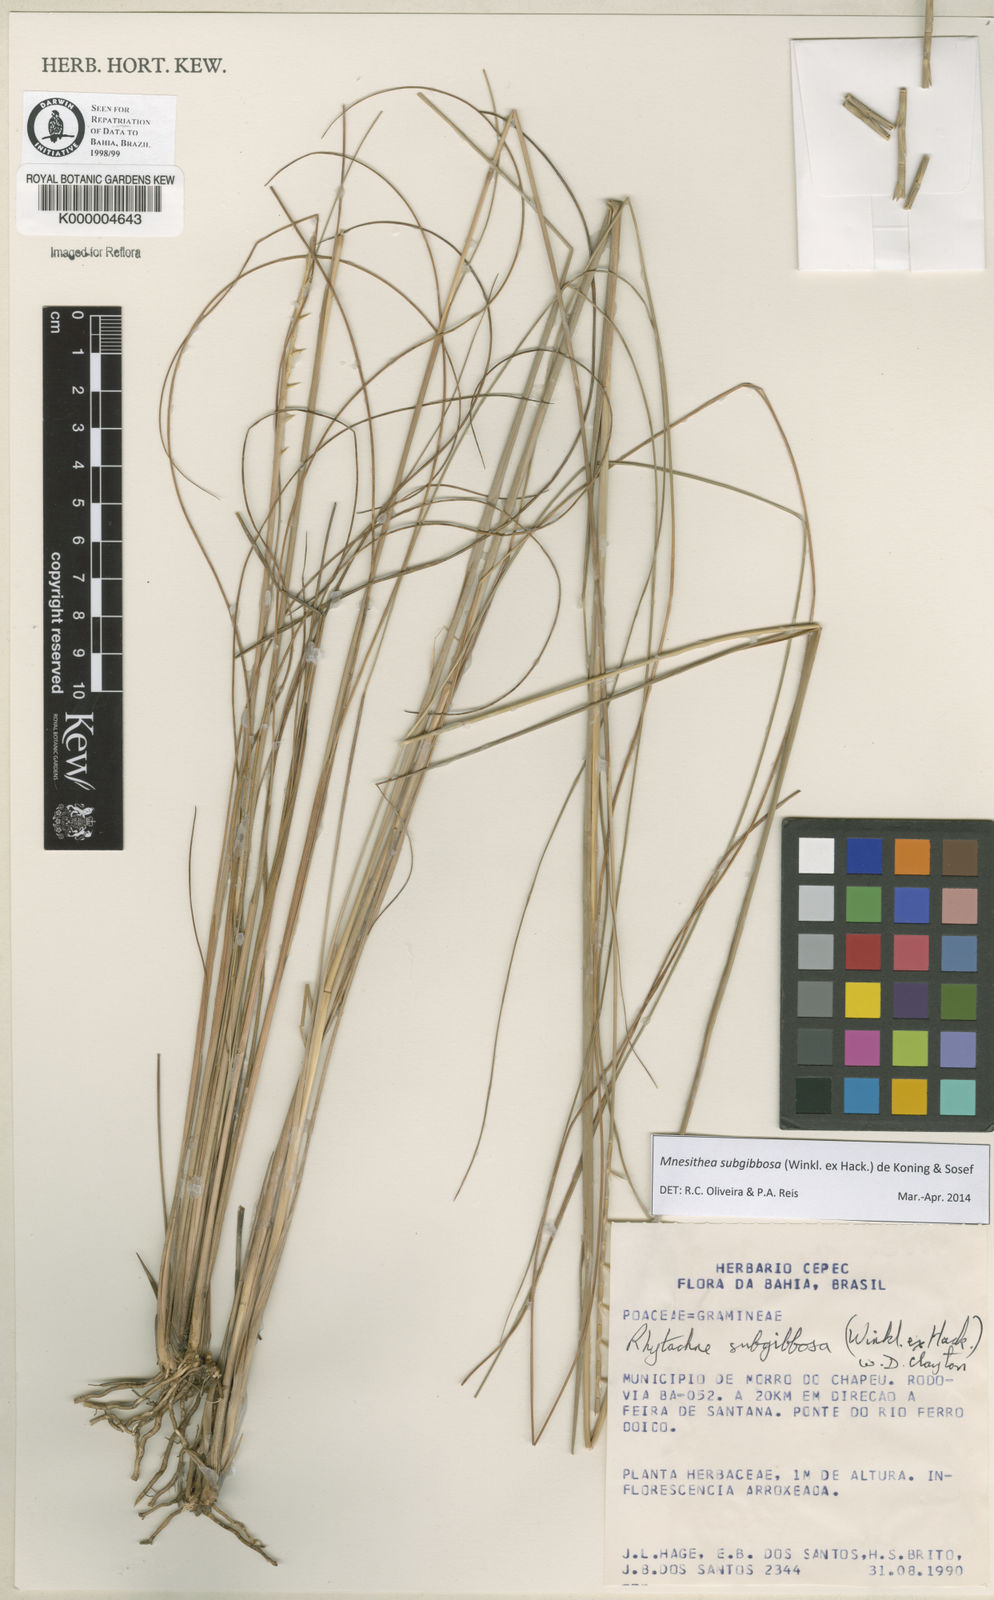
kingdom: Plantae
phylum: Tracheophyta
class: Liliopsida
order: Poales
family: Poaceae
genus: Rhytachne
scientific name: Rhytachne subgibbosa
